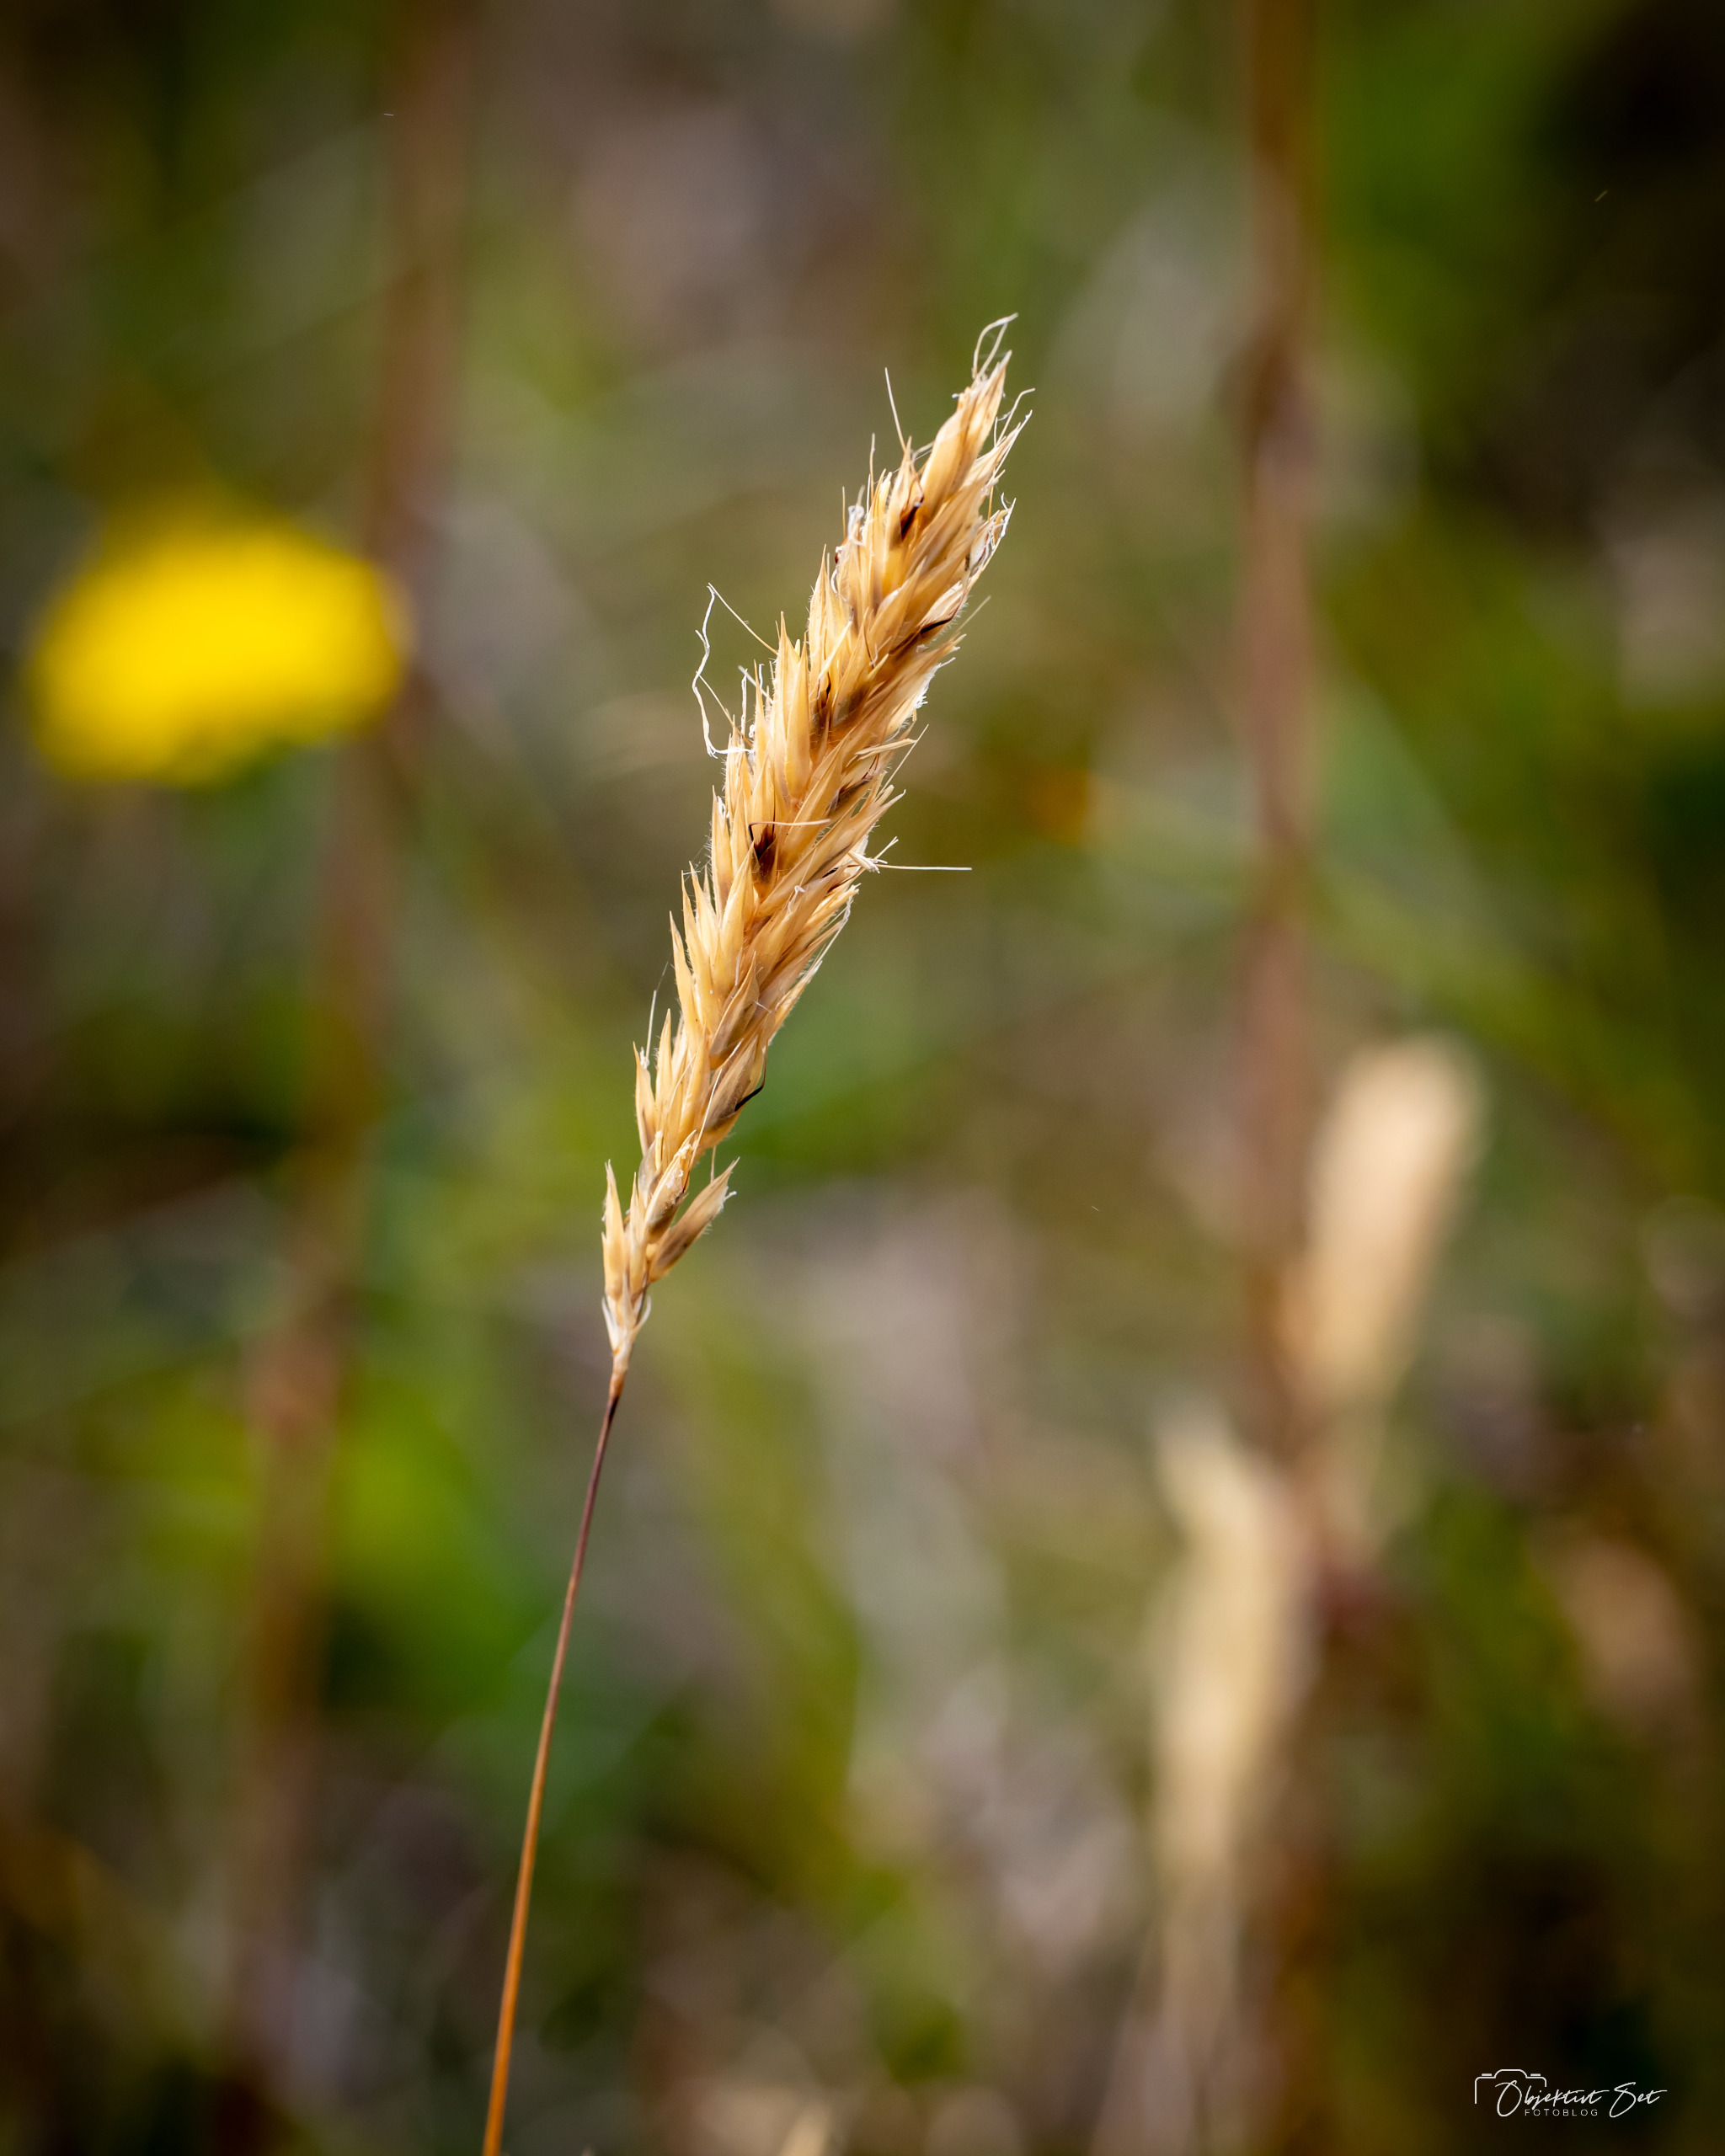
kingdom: Plantae
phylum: Tracheophyta
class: Liliopsida
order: Poales
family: Poaceae
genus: Anthoxanthum
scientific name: Anthoxanthum odoratum
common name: Vellugtende gulaks
